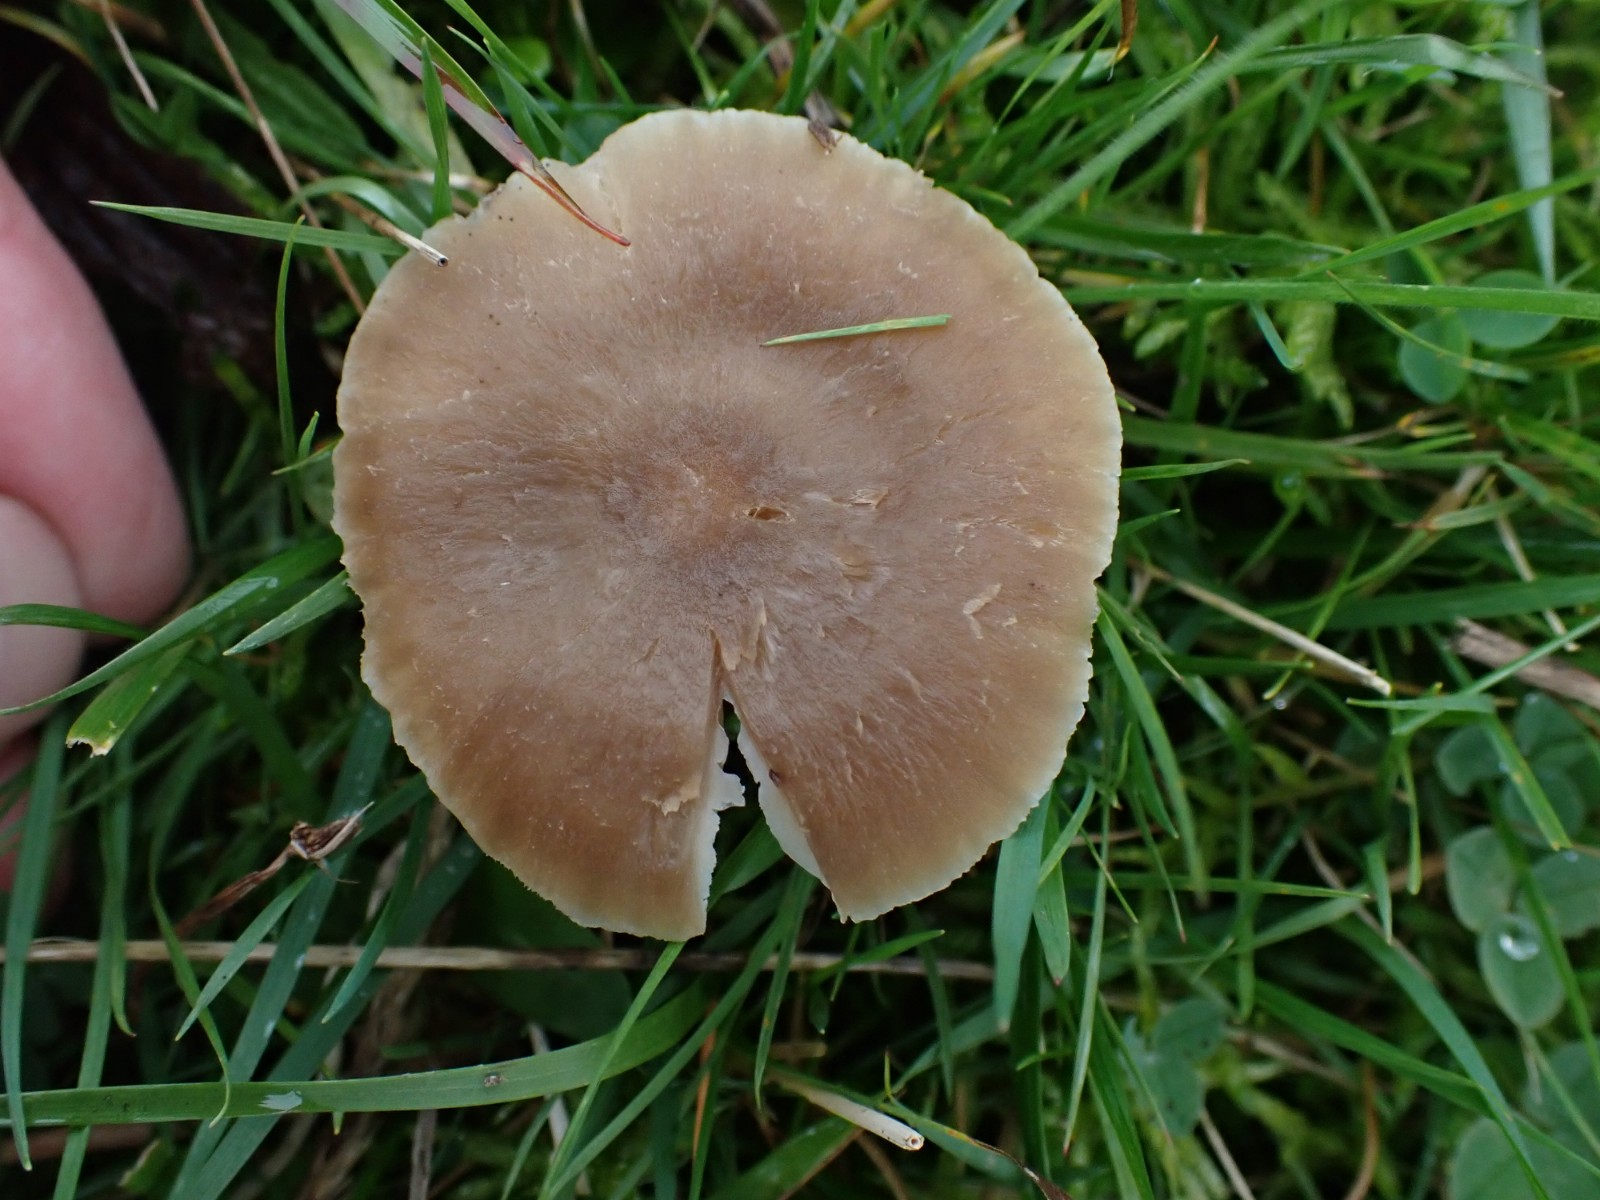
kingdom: Fungi
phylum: Basidiomycota
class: Agaricomycetes
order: Agaricales
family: Hygrophoraceae
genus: Neohygrocybe
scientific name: Neohygrocybe nitrata
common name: stinkende vokshat
